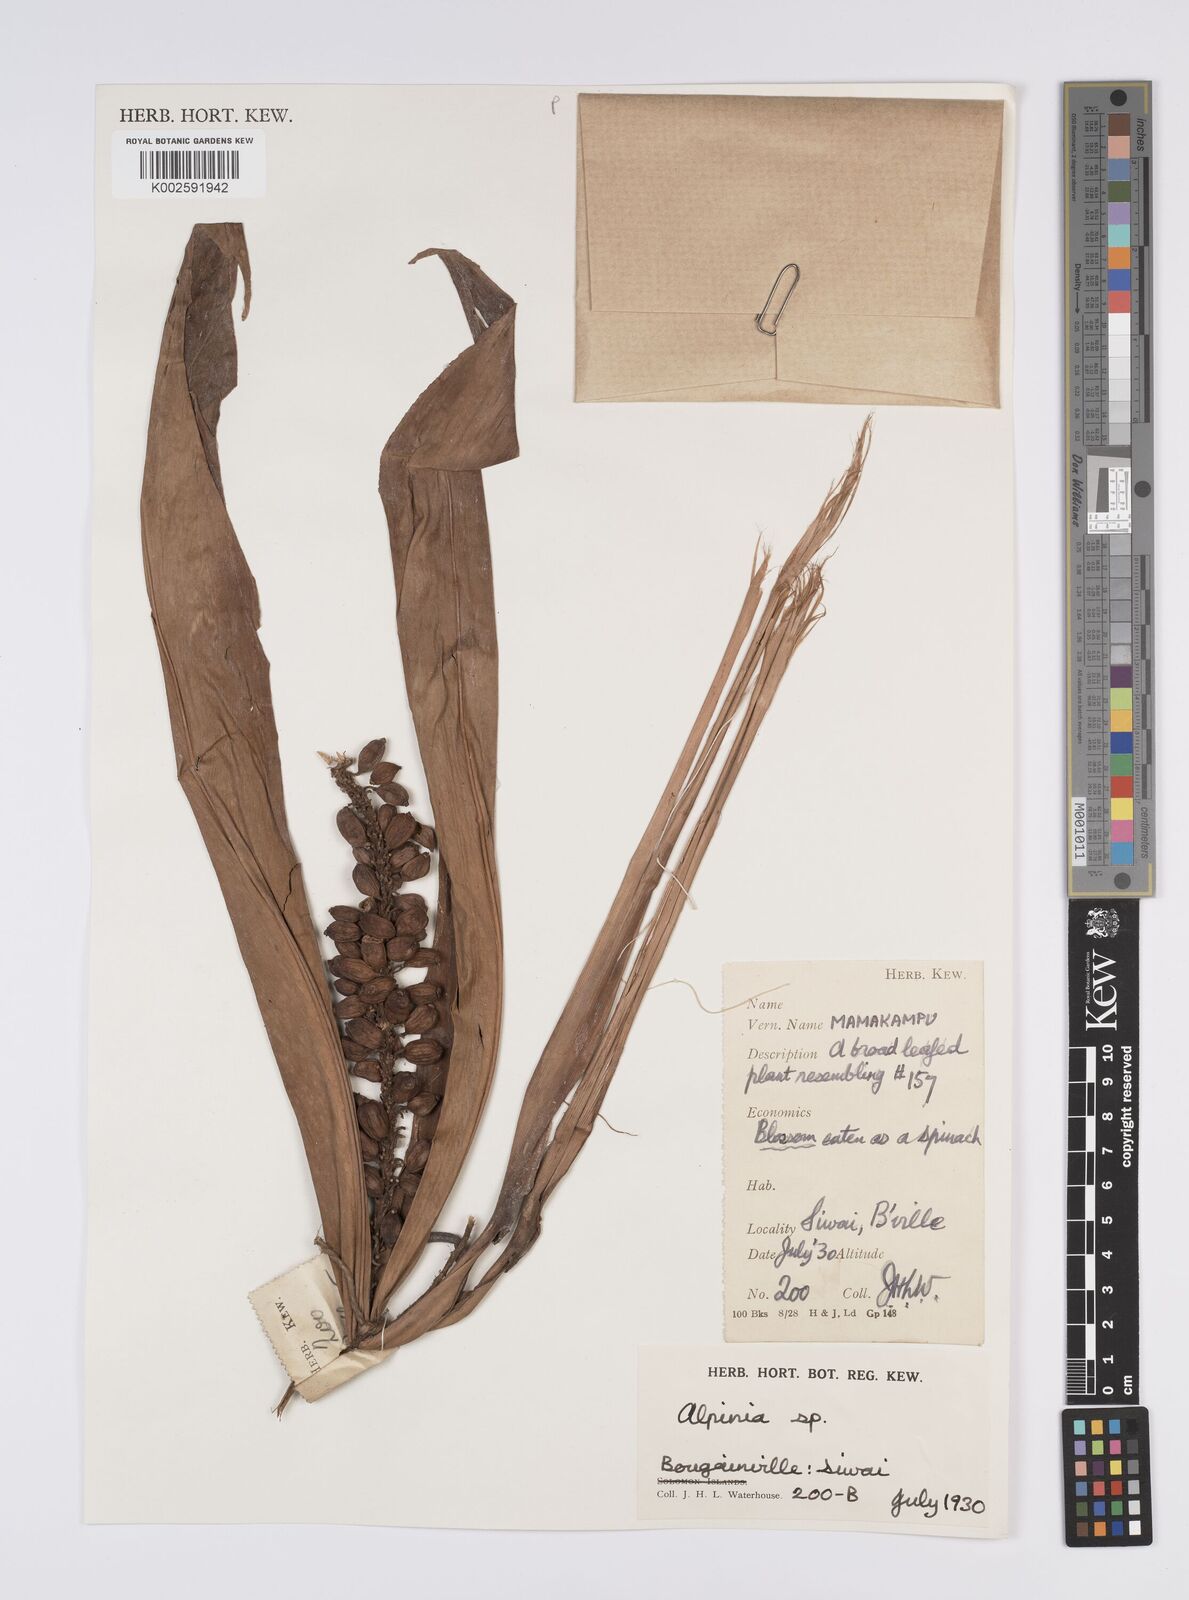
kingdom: Plantae
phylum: Tracheophyta
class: Liliopsida
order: Zingiberales
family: Zingiberaceae
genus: Alpinia
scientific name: Alpinia
